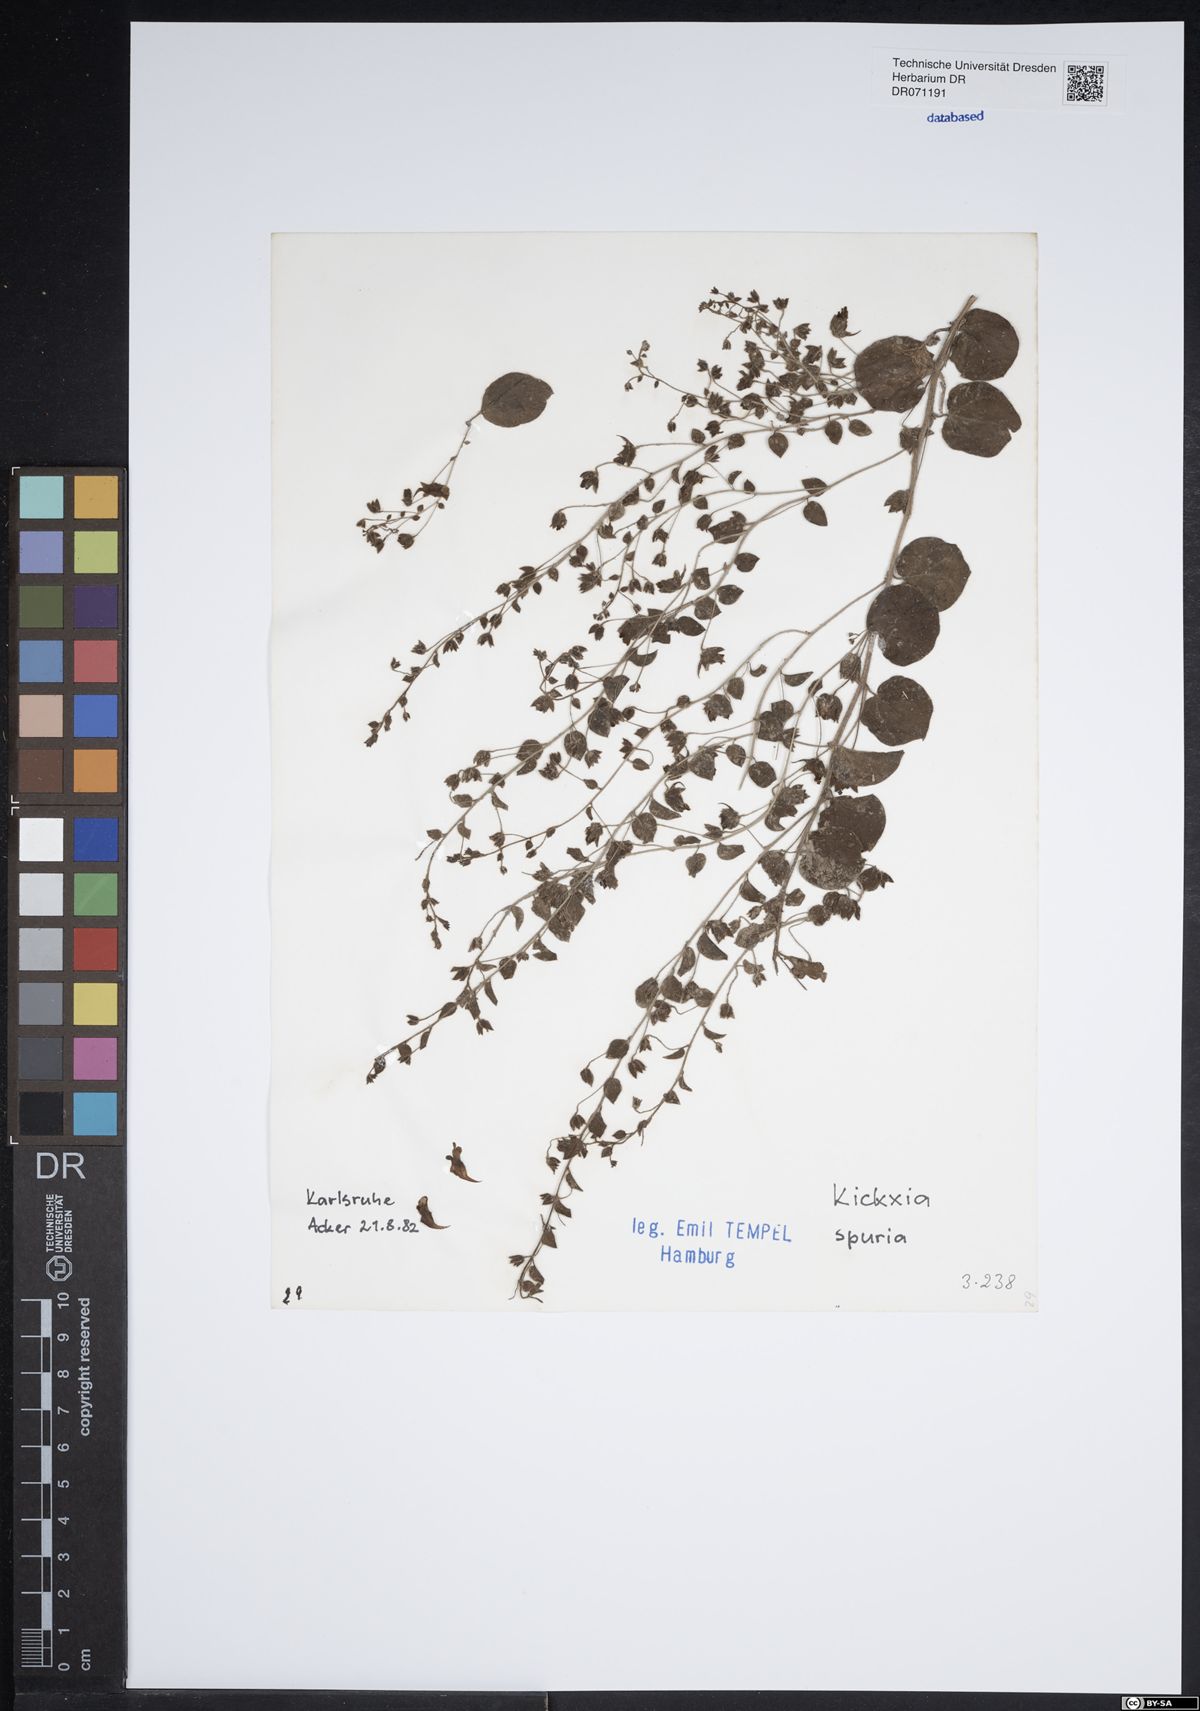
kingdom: Plantae
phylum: Tracheophyta
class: Magnoliopsida
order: Lamiales
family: Plantaginaceae
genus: Kickxia
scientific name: Kickxia spuria
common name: Round-leaved fluellen
